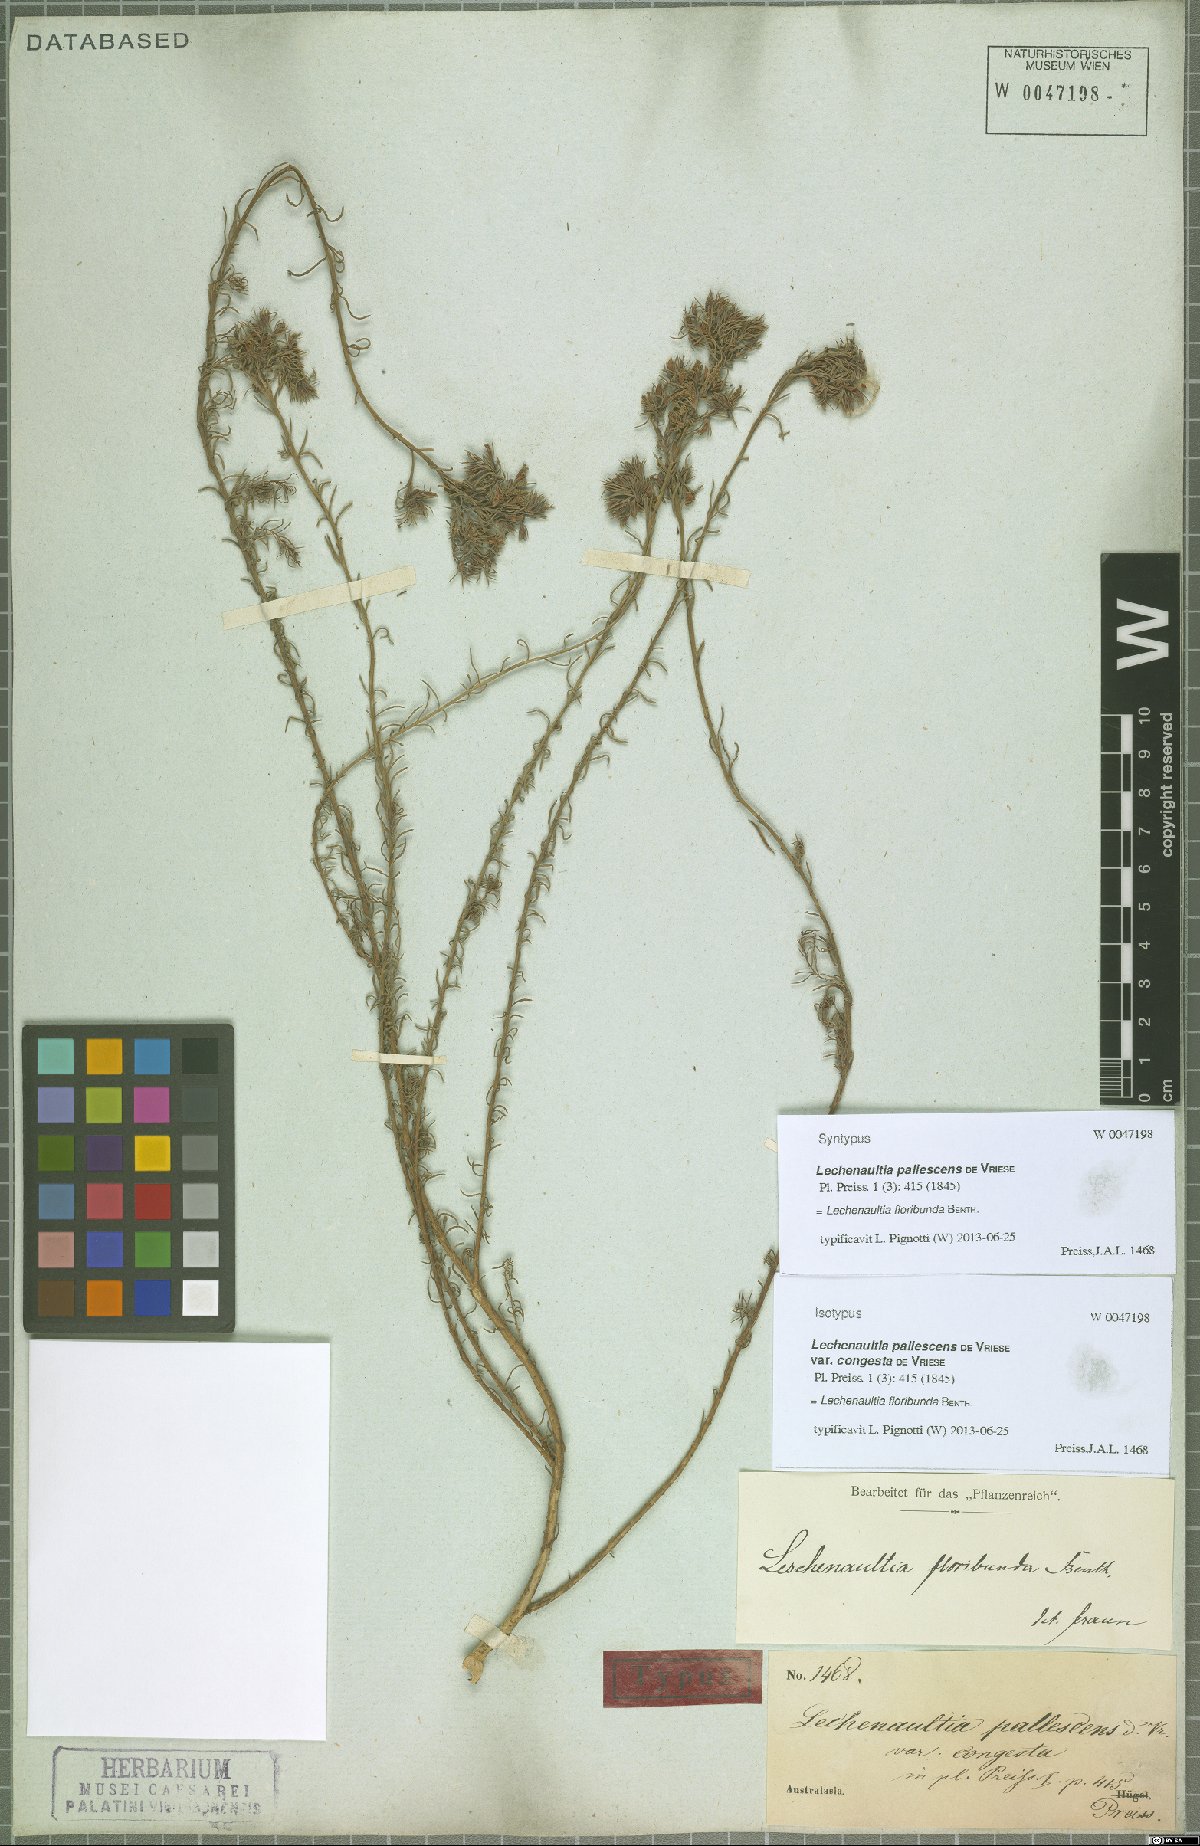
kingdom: Plantae
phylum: Tracheophyta
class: Magnoliopsida
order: Asterales
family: Goodeniaceae
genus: Lechenaultia
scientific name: Lechenaultia floribunda
